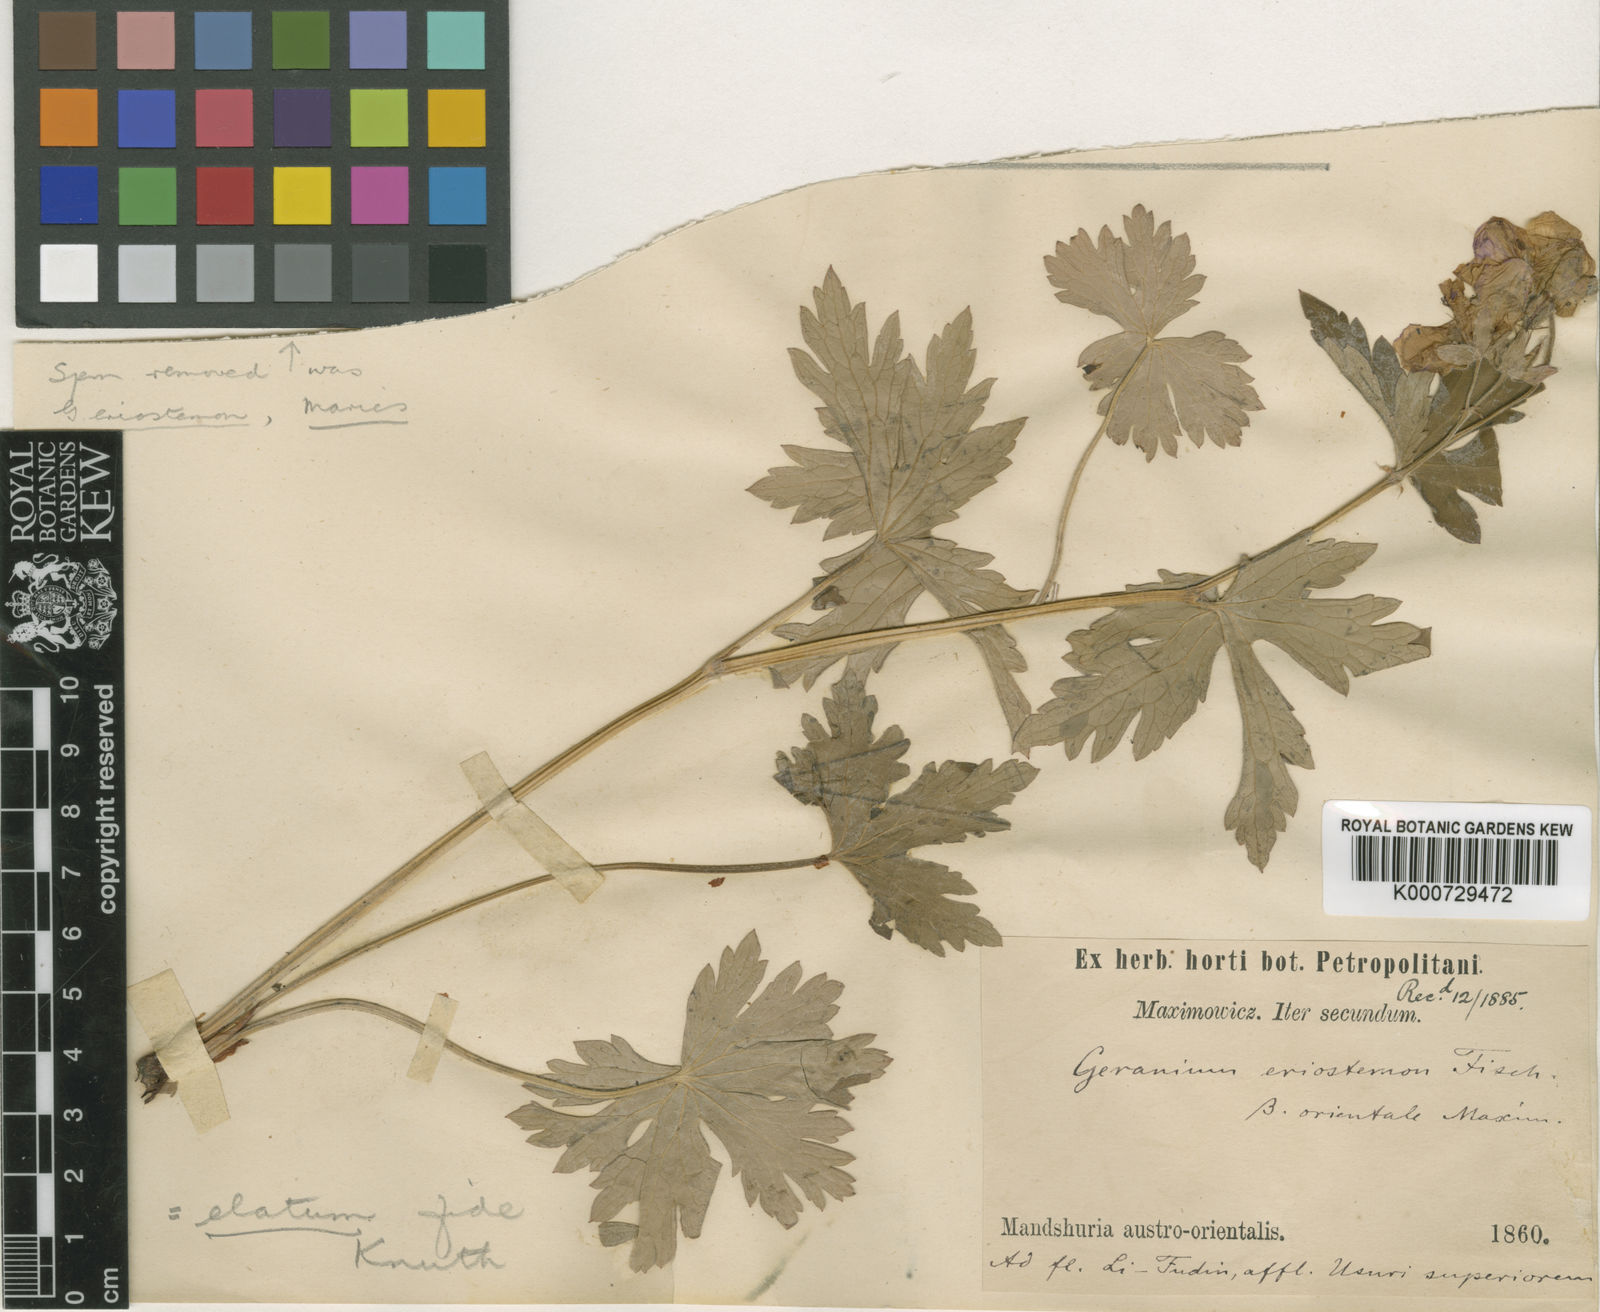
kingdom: Plantae
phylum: Tracheophyta
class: Magnoliopsida
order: Geraniales
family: Geraniaceae
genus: Geranium
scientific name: Geranium
